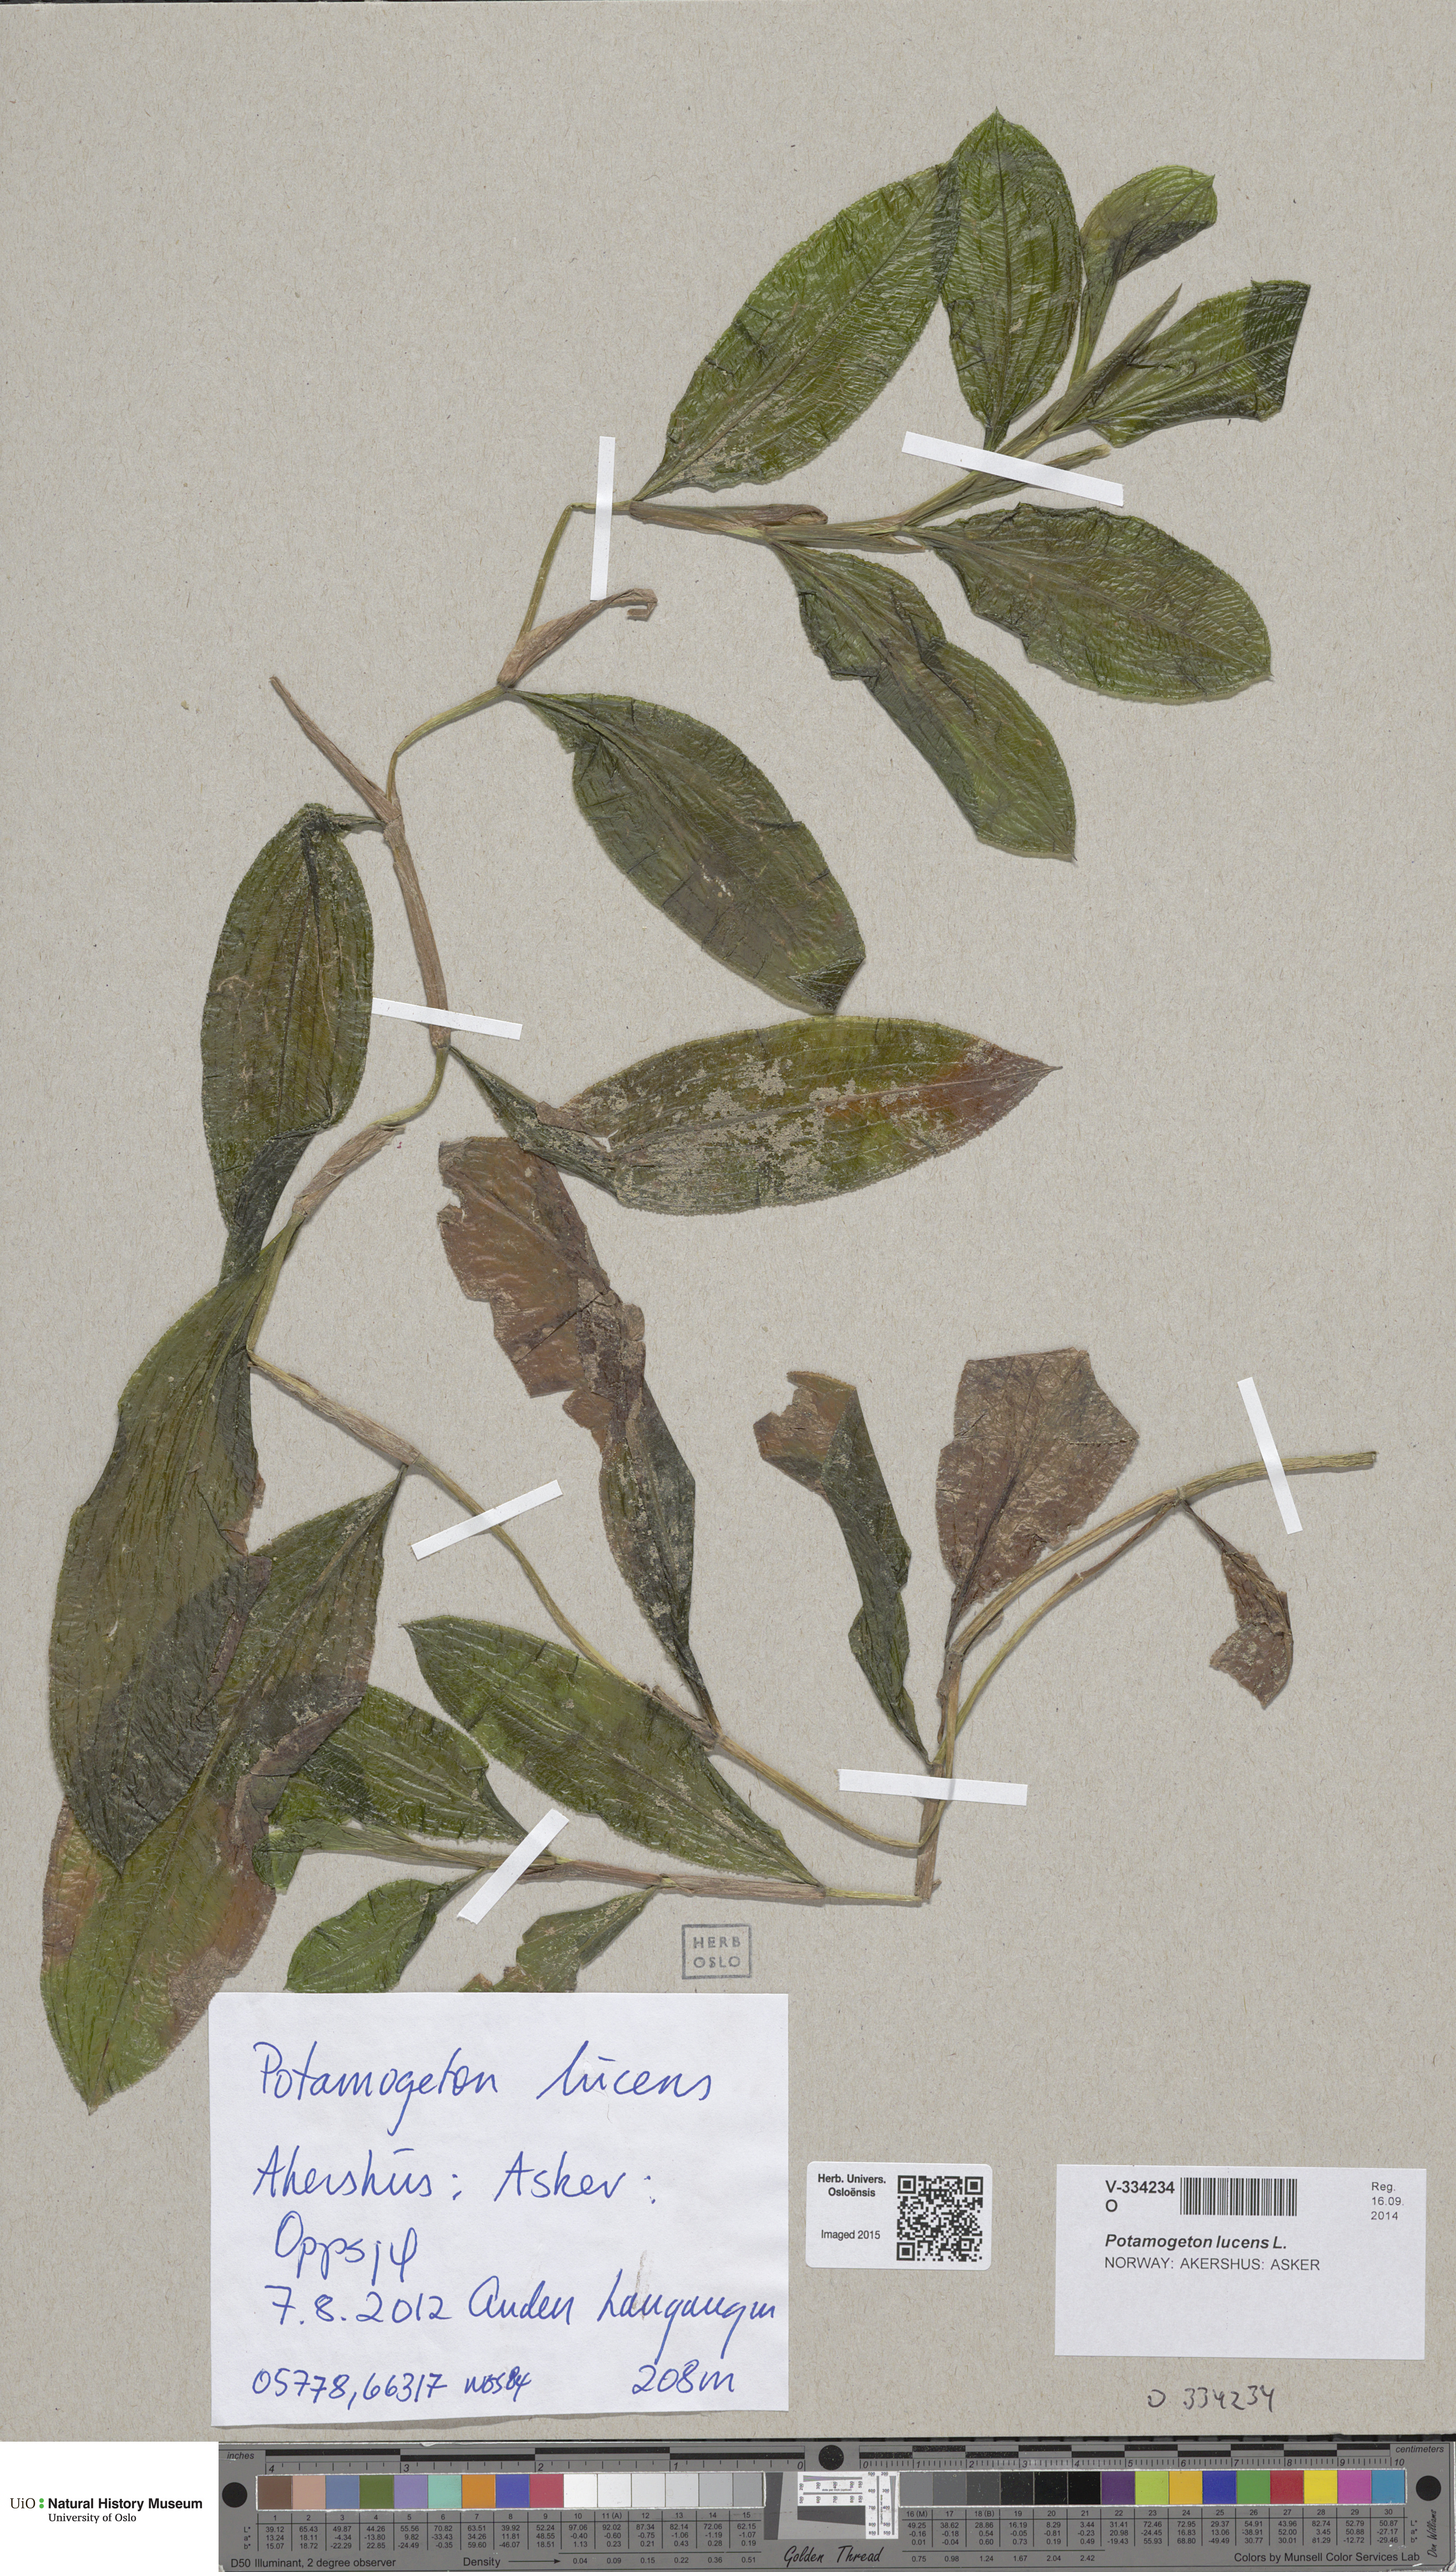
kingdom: Plantae
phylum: Tracheophyta
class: Liliopsida
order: Alismatales
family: Potamogetonaceae
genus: Potamogeton
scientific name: Potamogeton lucens
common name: Shining pondweed
